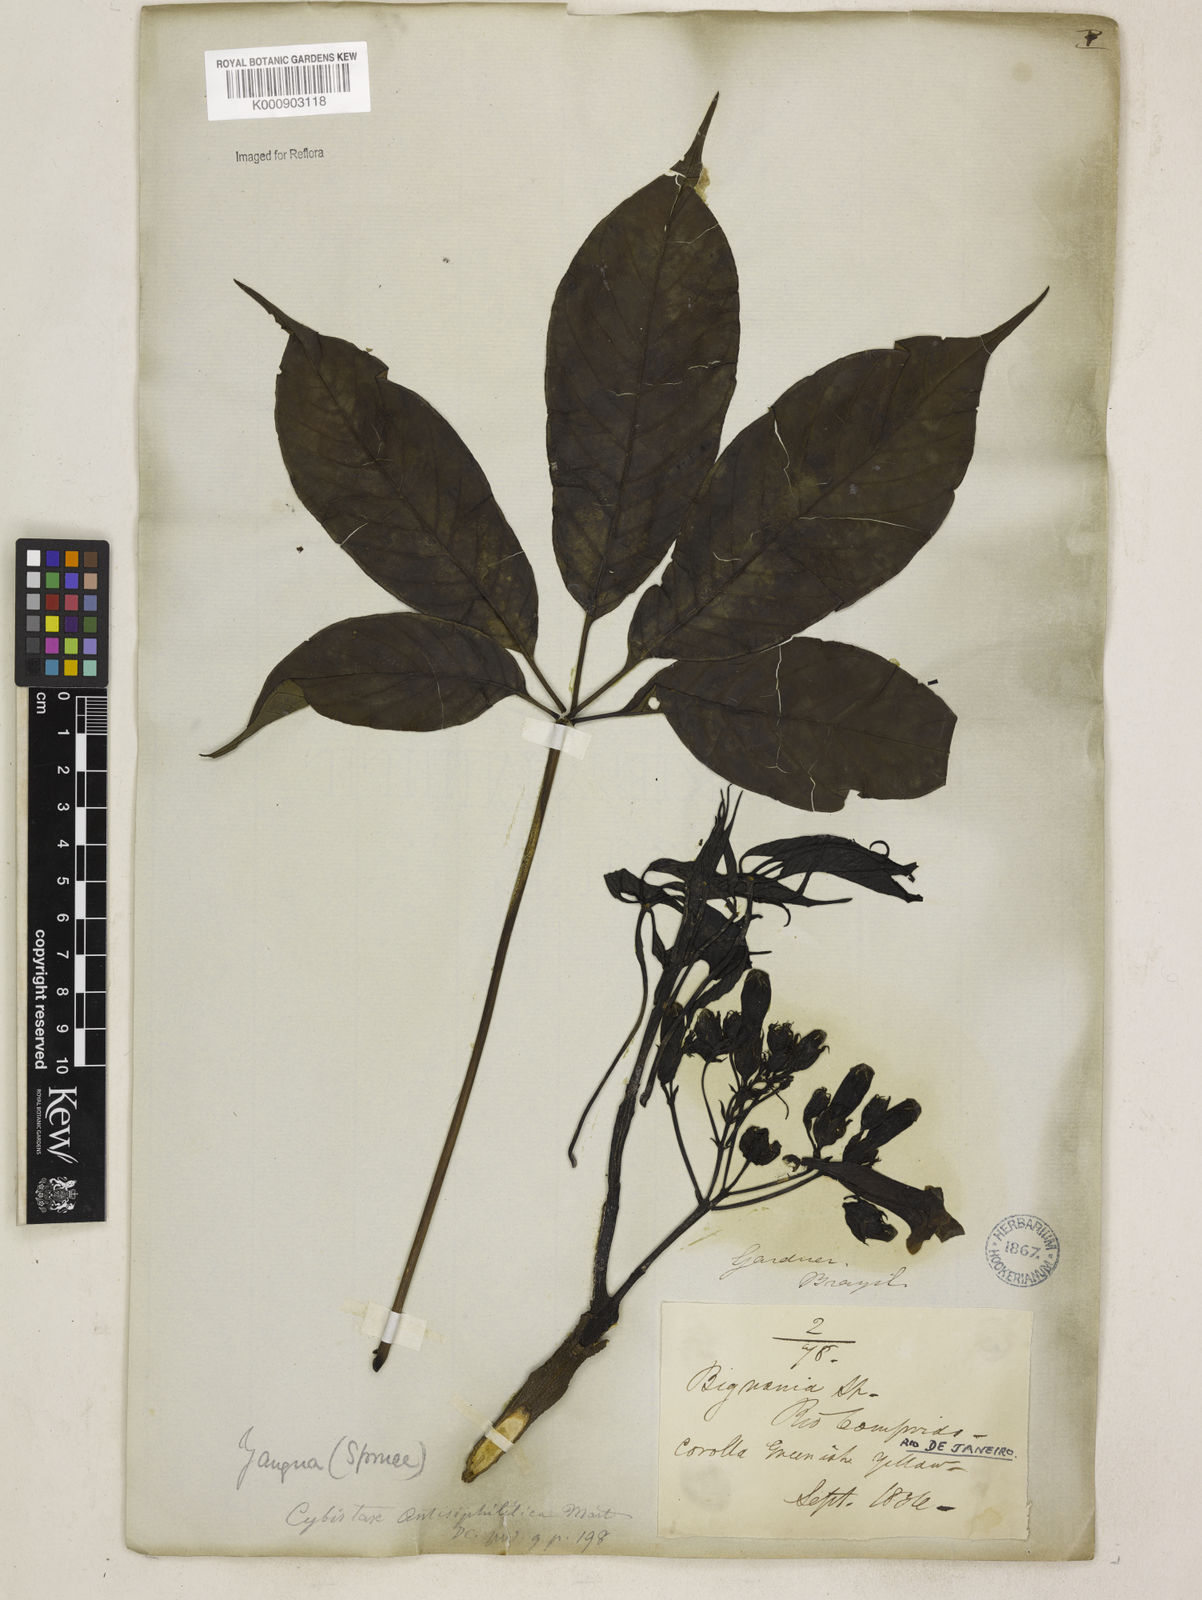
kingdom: Plantae
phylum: Tracheophyta
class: Magnoliopsida
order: Lamiales
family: Bignoniaceae
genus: Cybistax
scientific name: Cybistax antisyphilitica
